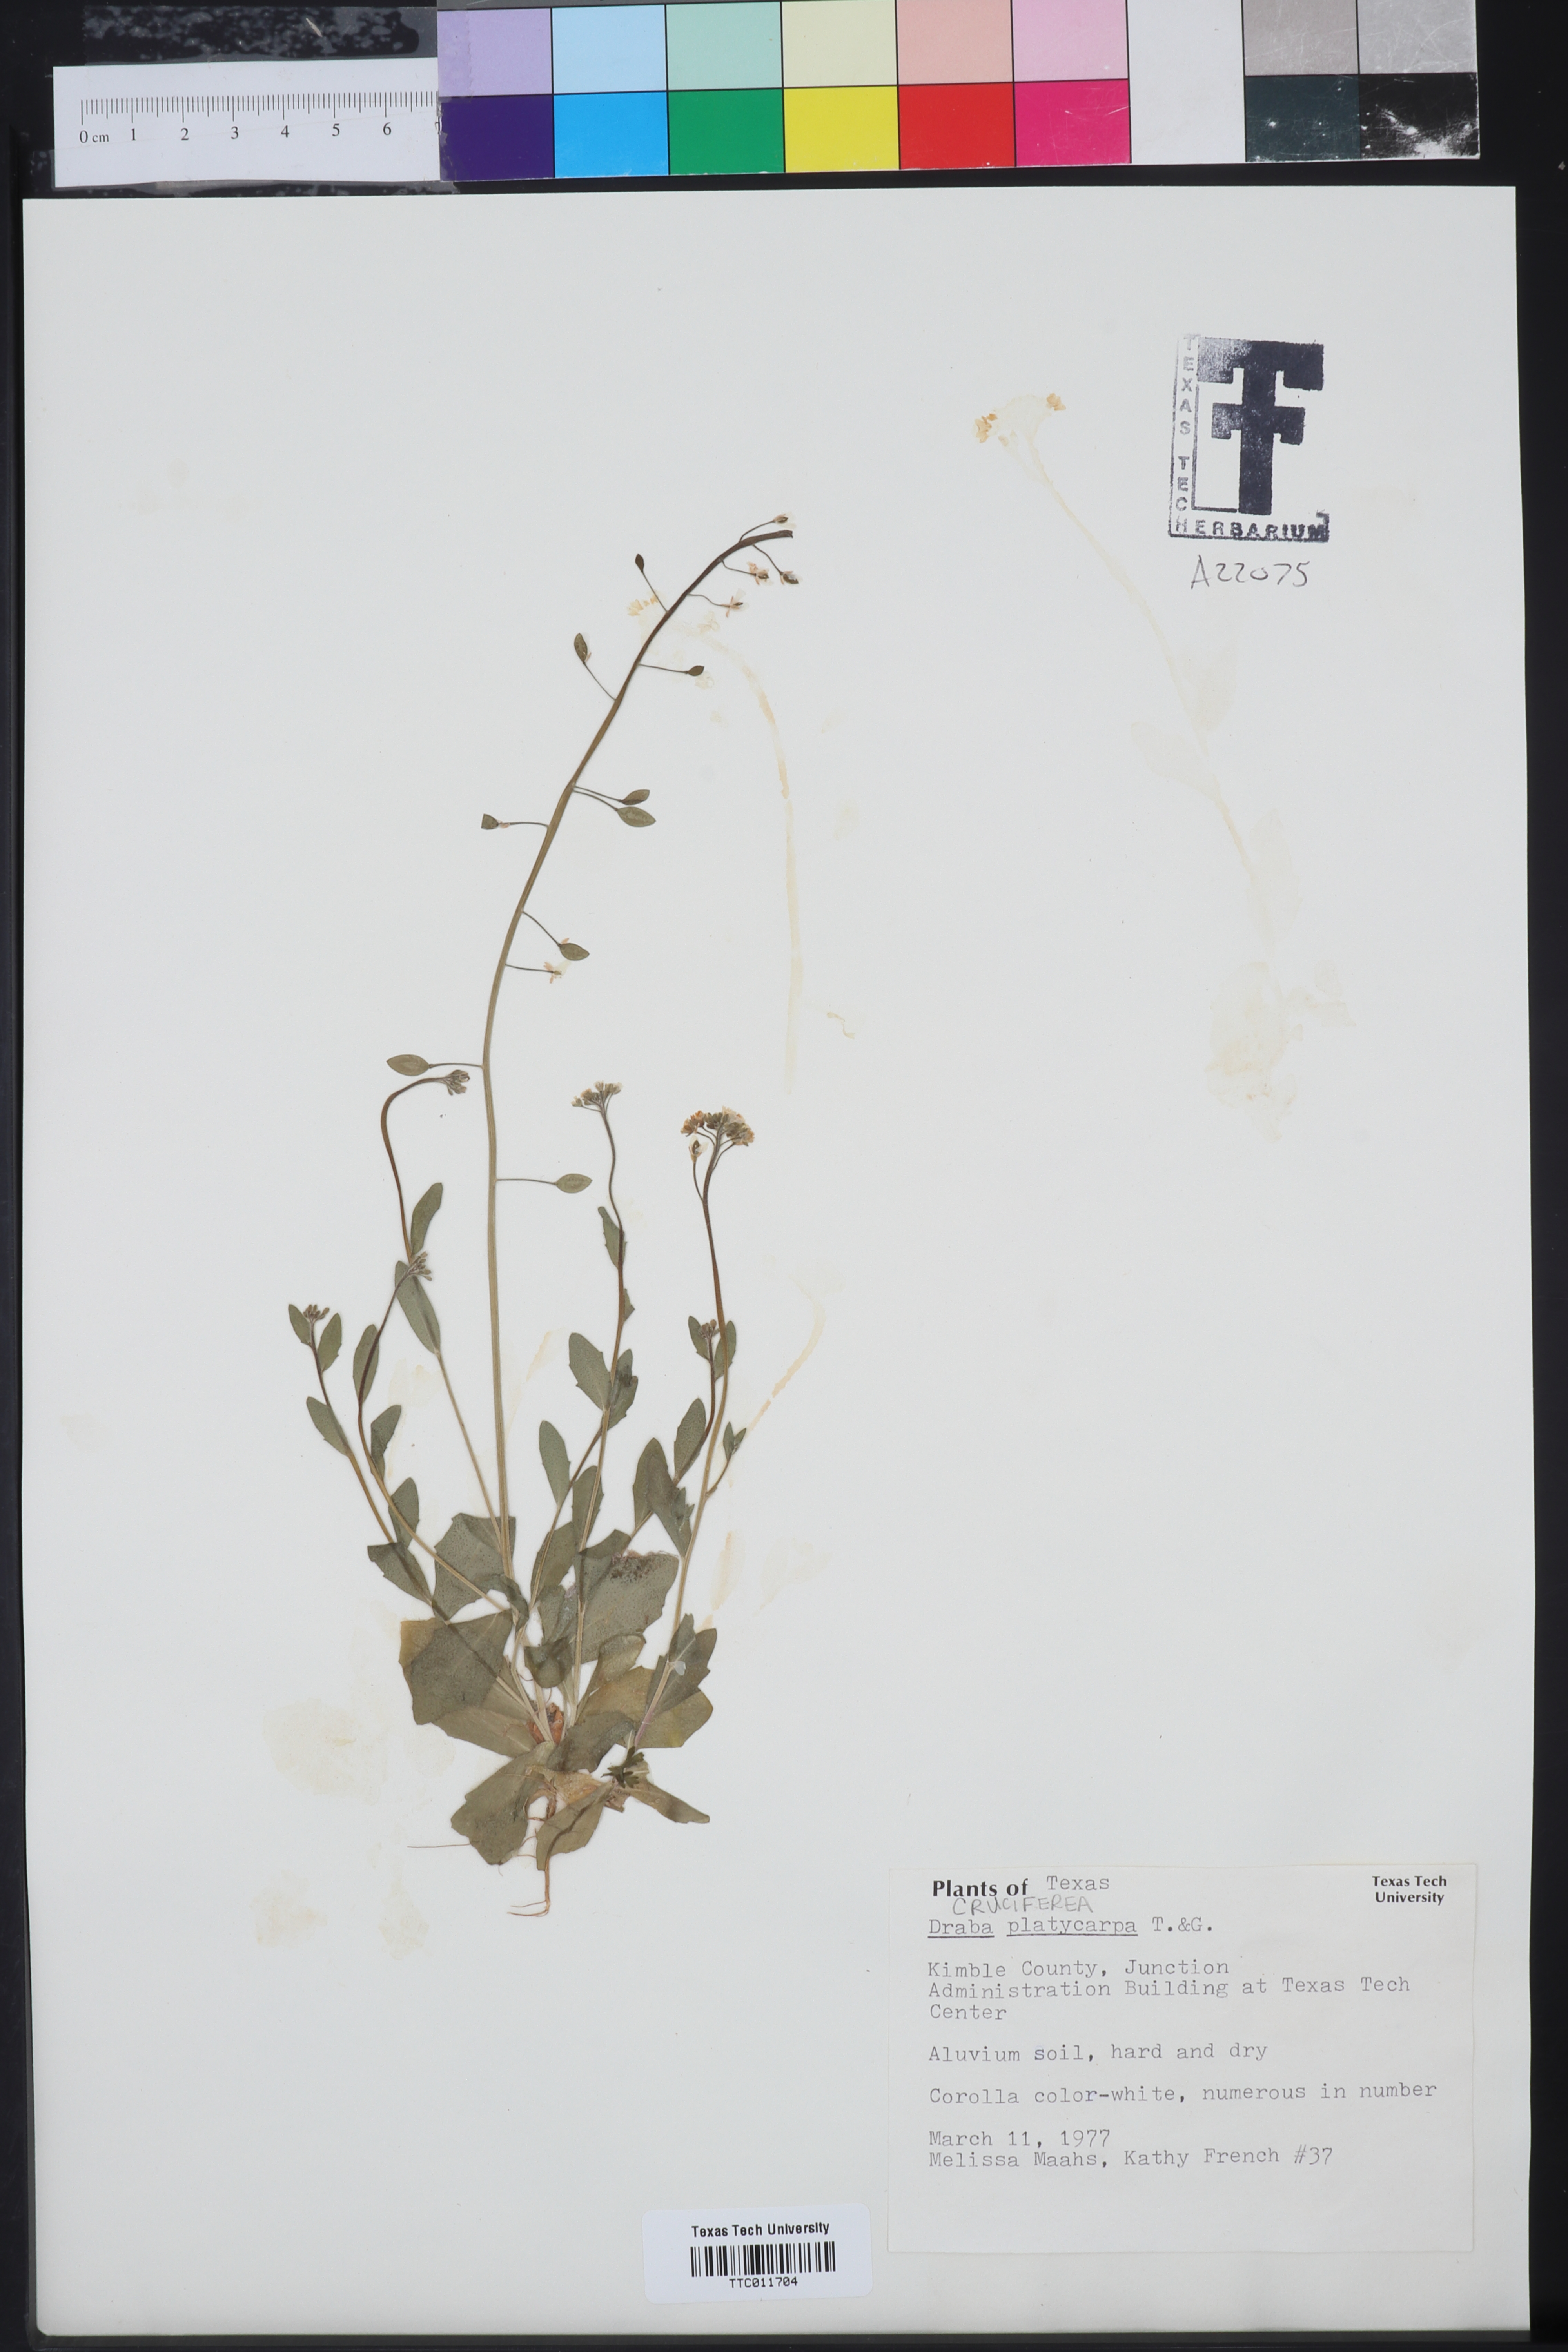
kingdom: Plantae
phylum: Tracheophyta
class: Magnoliopsida
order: Brassicales
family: Brassicaceae
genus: Tomostima
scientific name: Tomostima platycarpa
